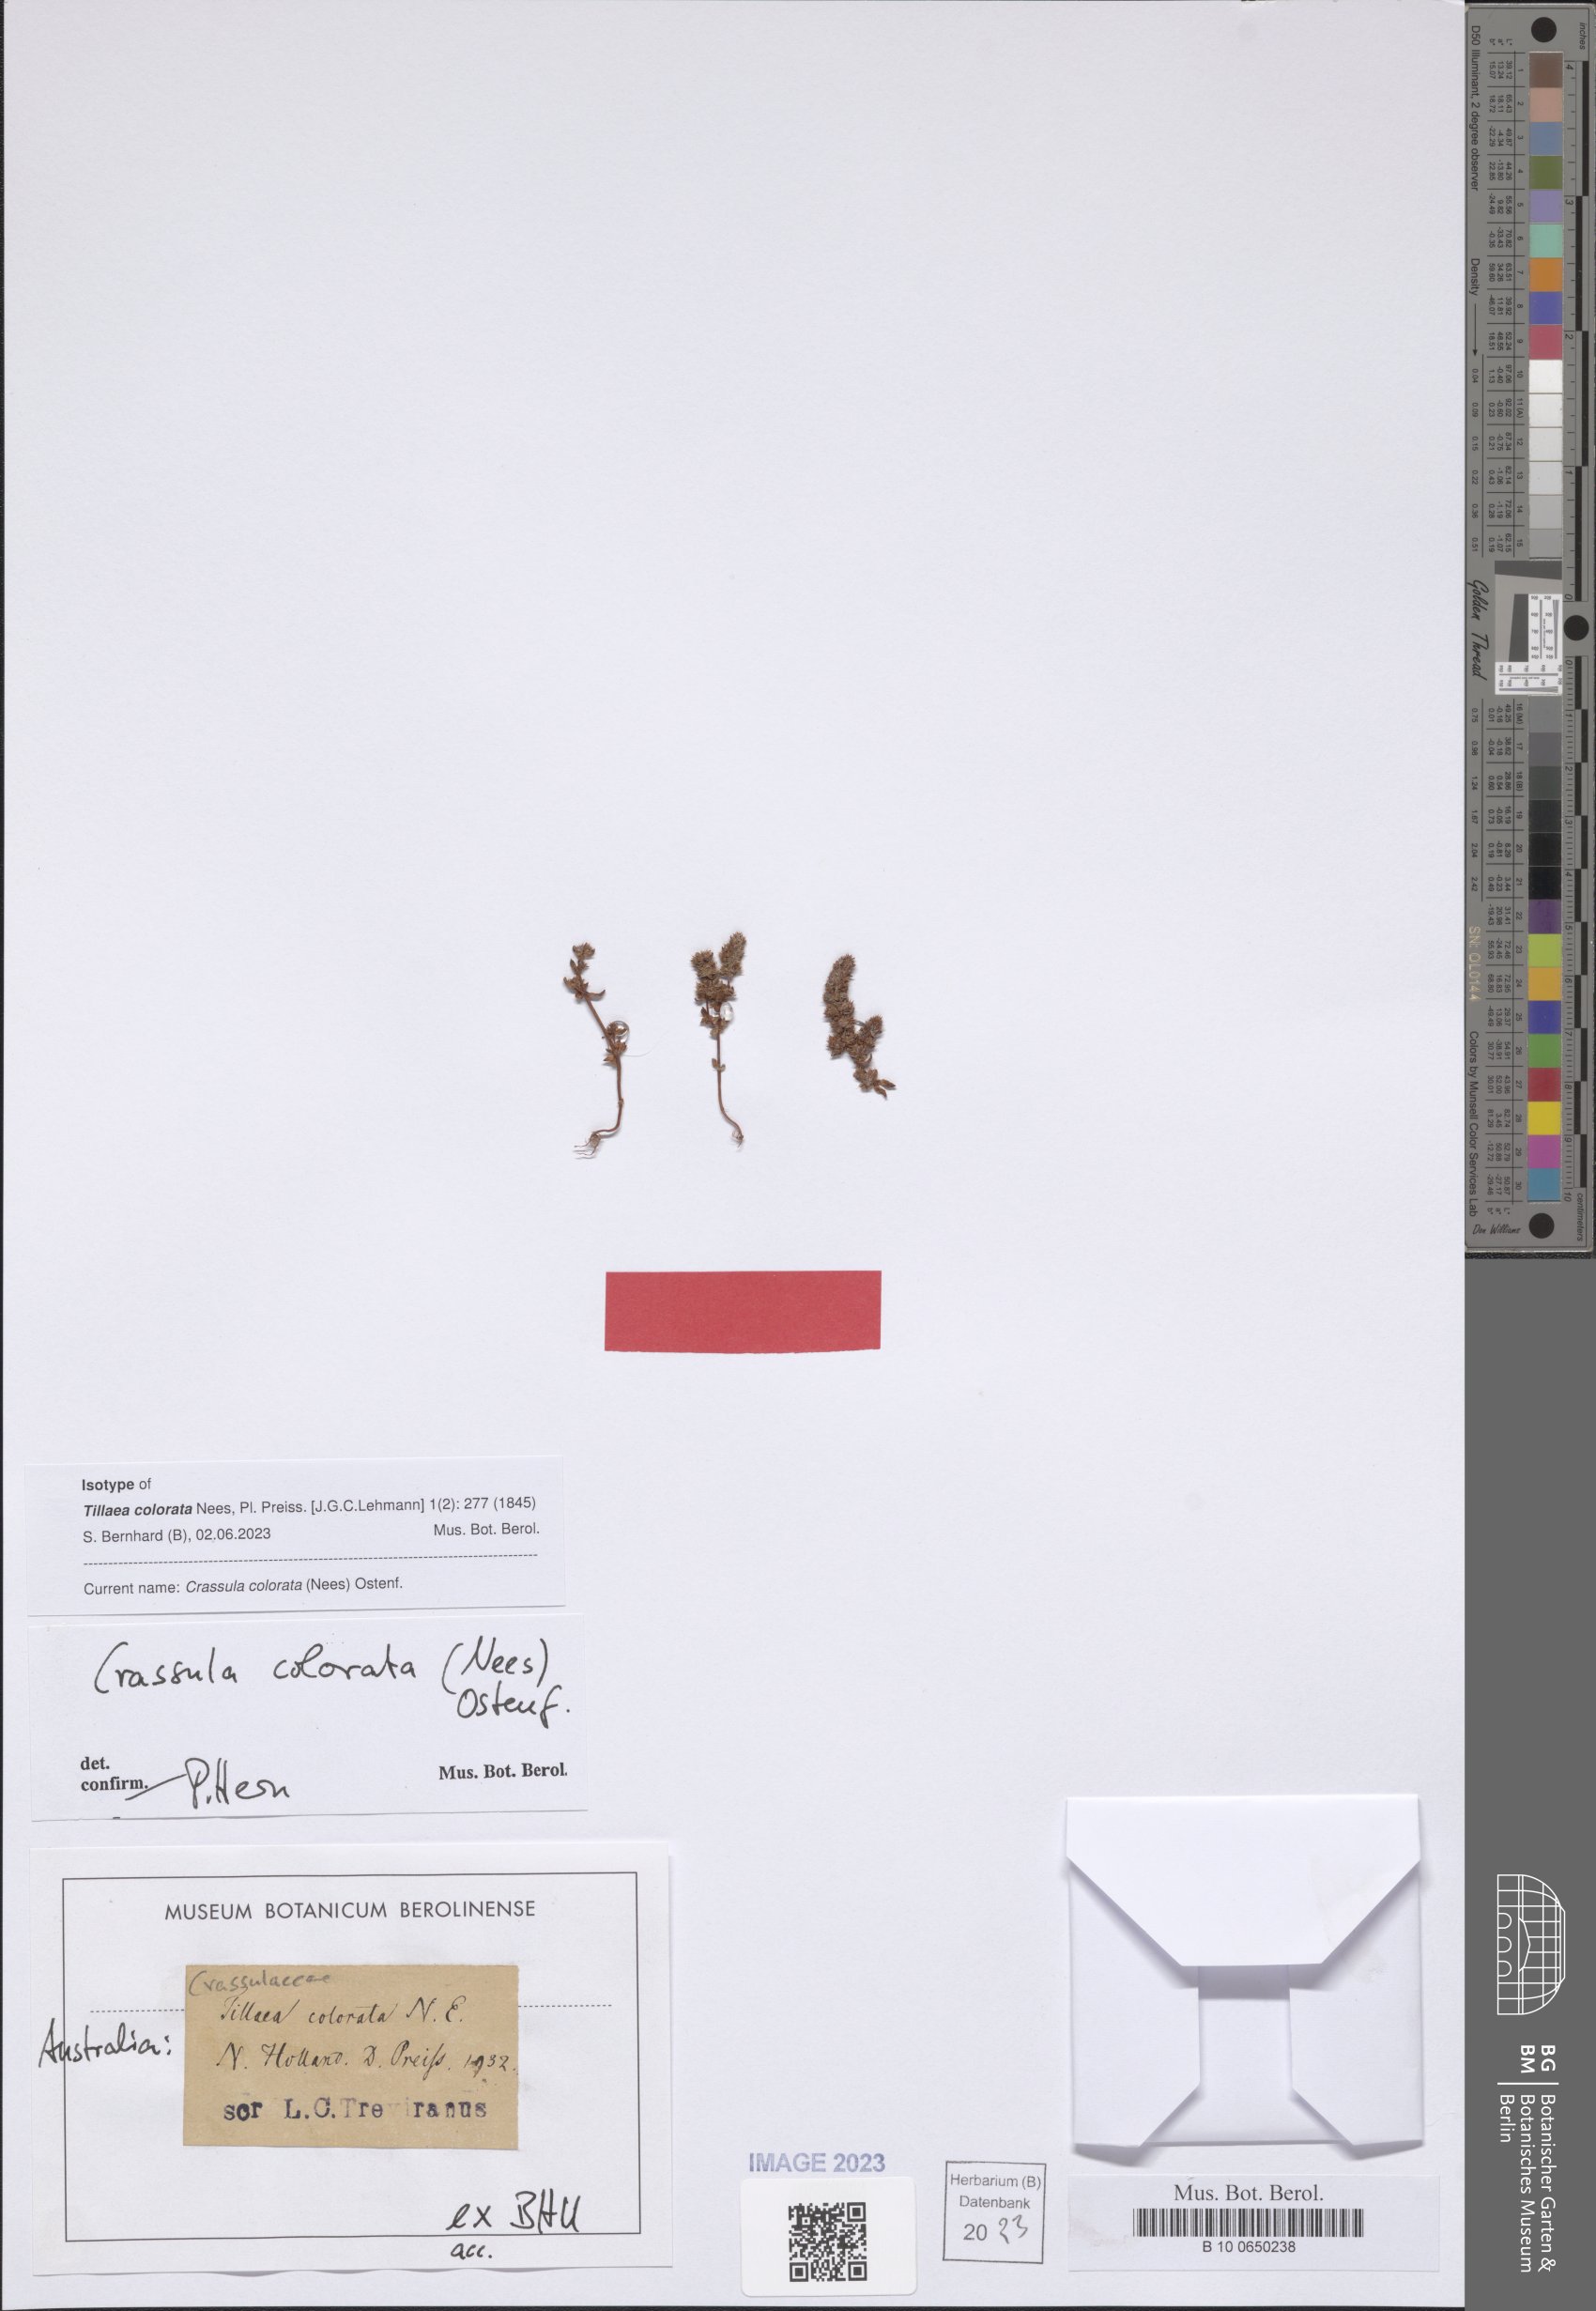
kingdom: Plantae
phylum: Tracheophyta
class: Magnoliopsida
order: Saxifragales
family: Crassulaceae
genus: Crassula
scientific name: Crassula colorata
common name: Dense pigmyweed
